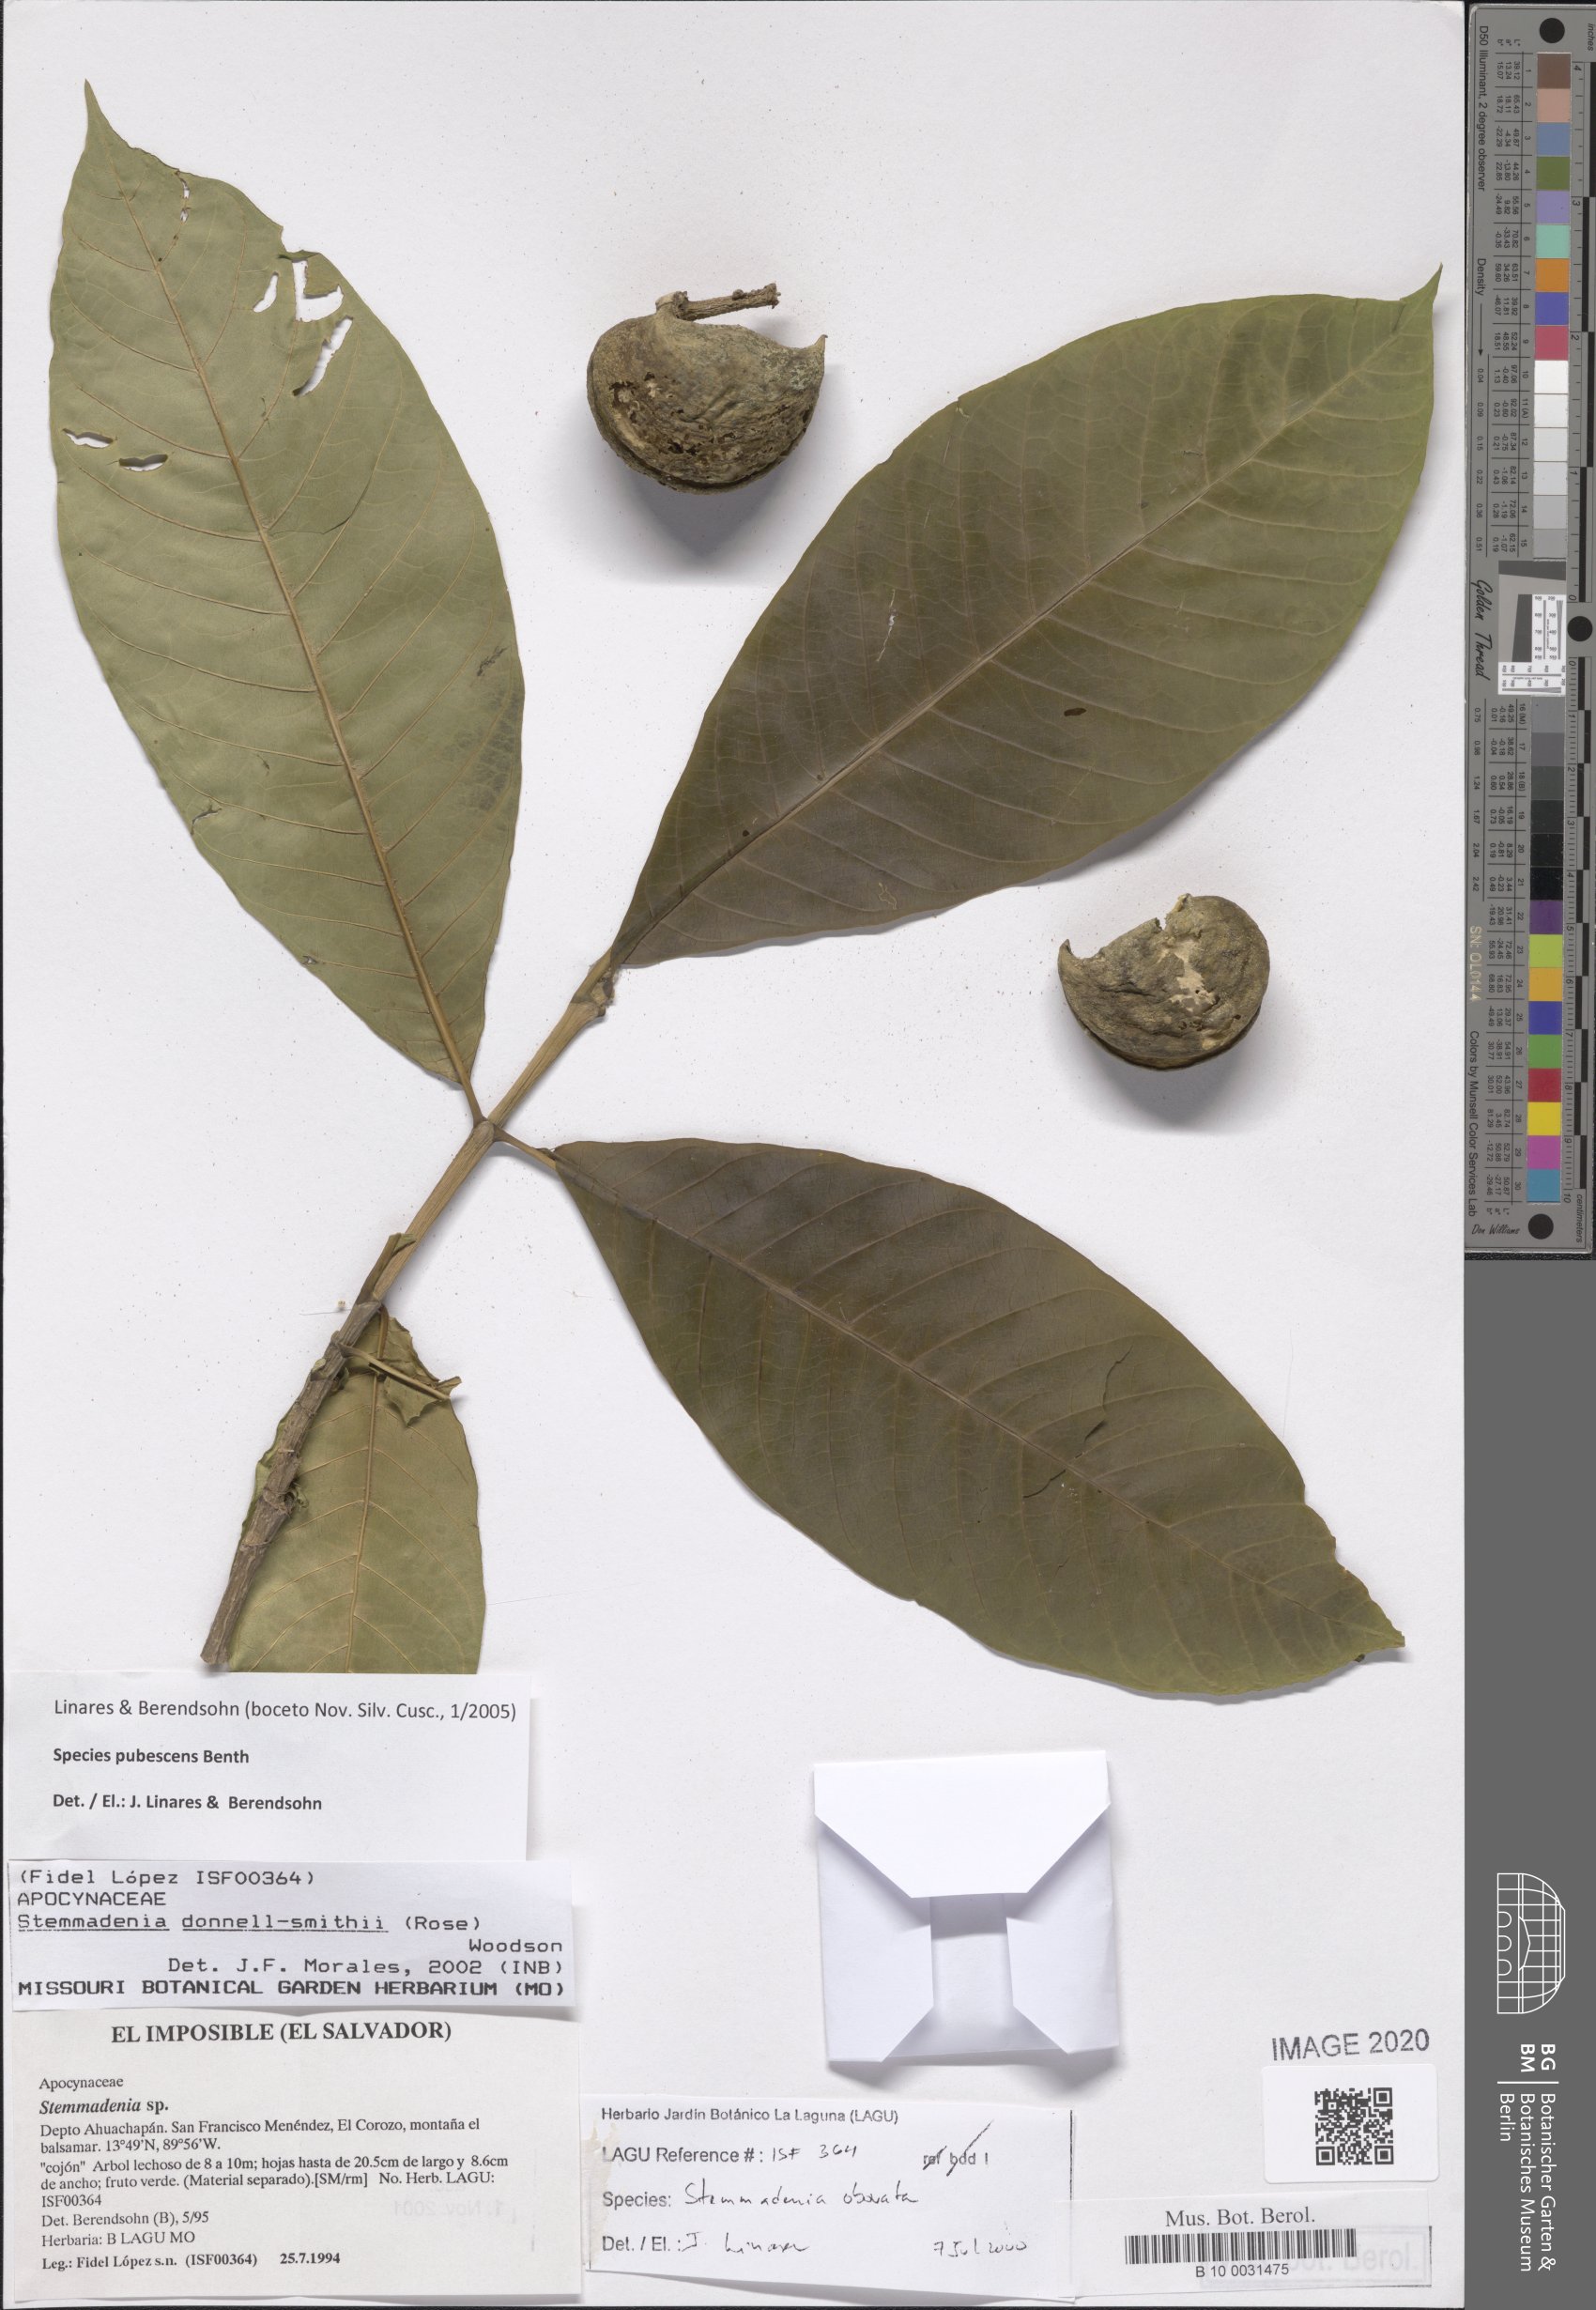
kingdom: Plantae
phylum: Tracheophyta
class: Magnoliopsida
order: Gentianales
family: Apocynaceae
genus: Tabernaemontana
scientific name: Tabernaemontana glabra
